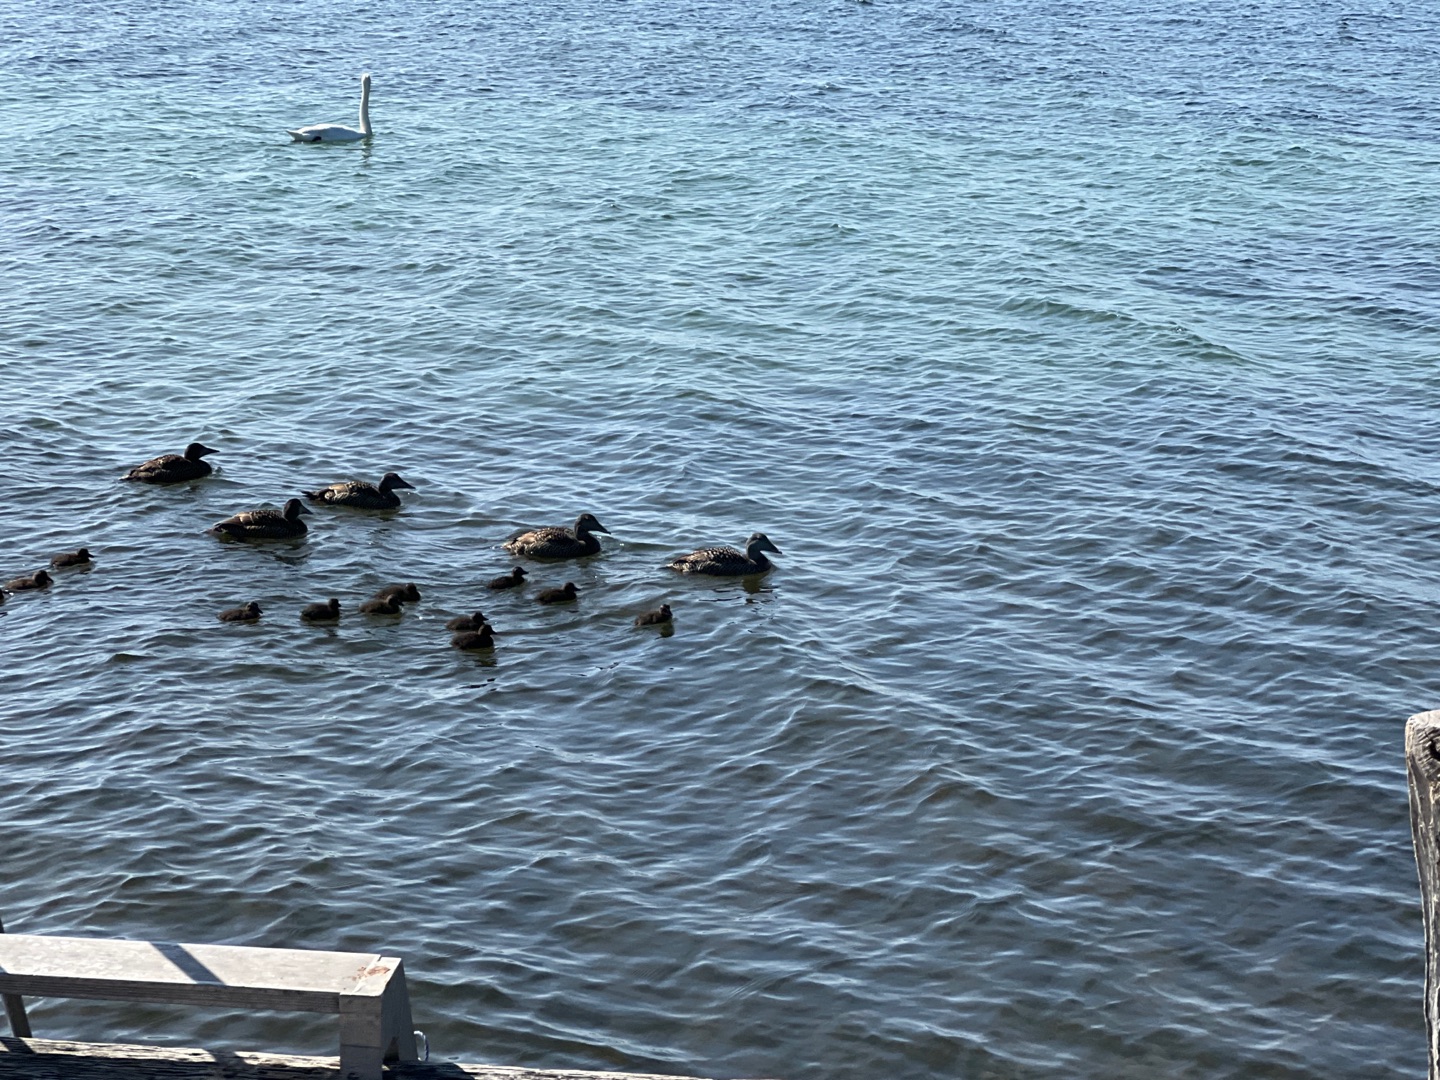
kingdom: Animalia
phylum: Chordata
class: Aves
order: Anseriformes
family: Anatidae
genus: Somateria
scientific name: Somateria mollissima
